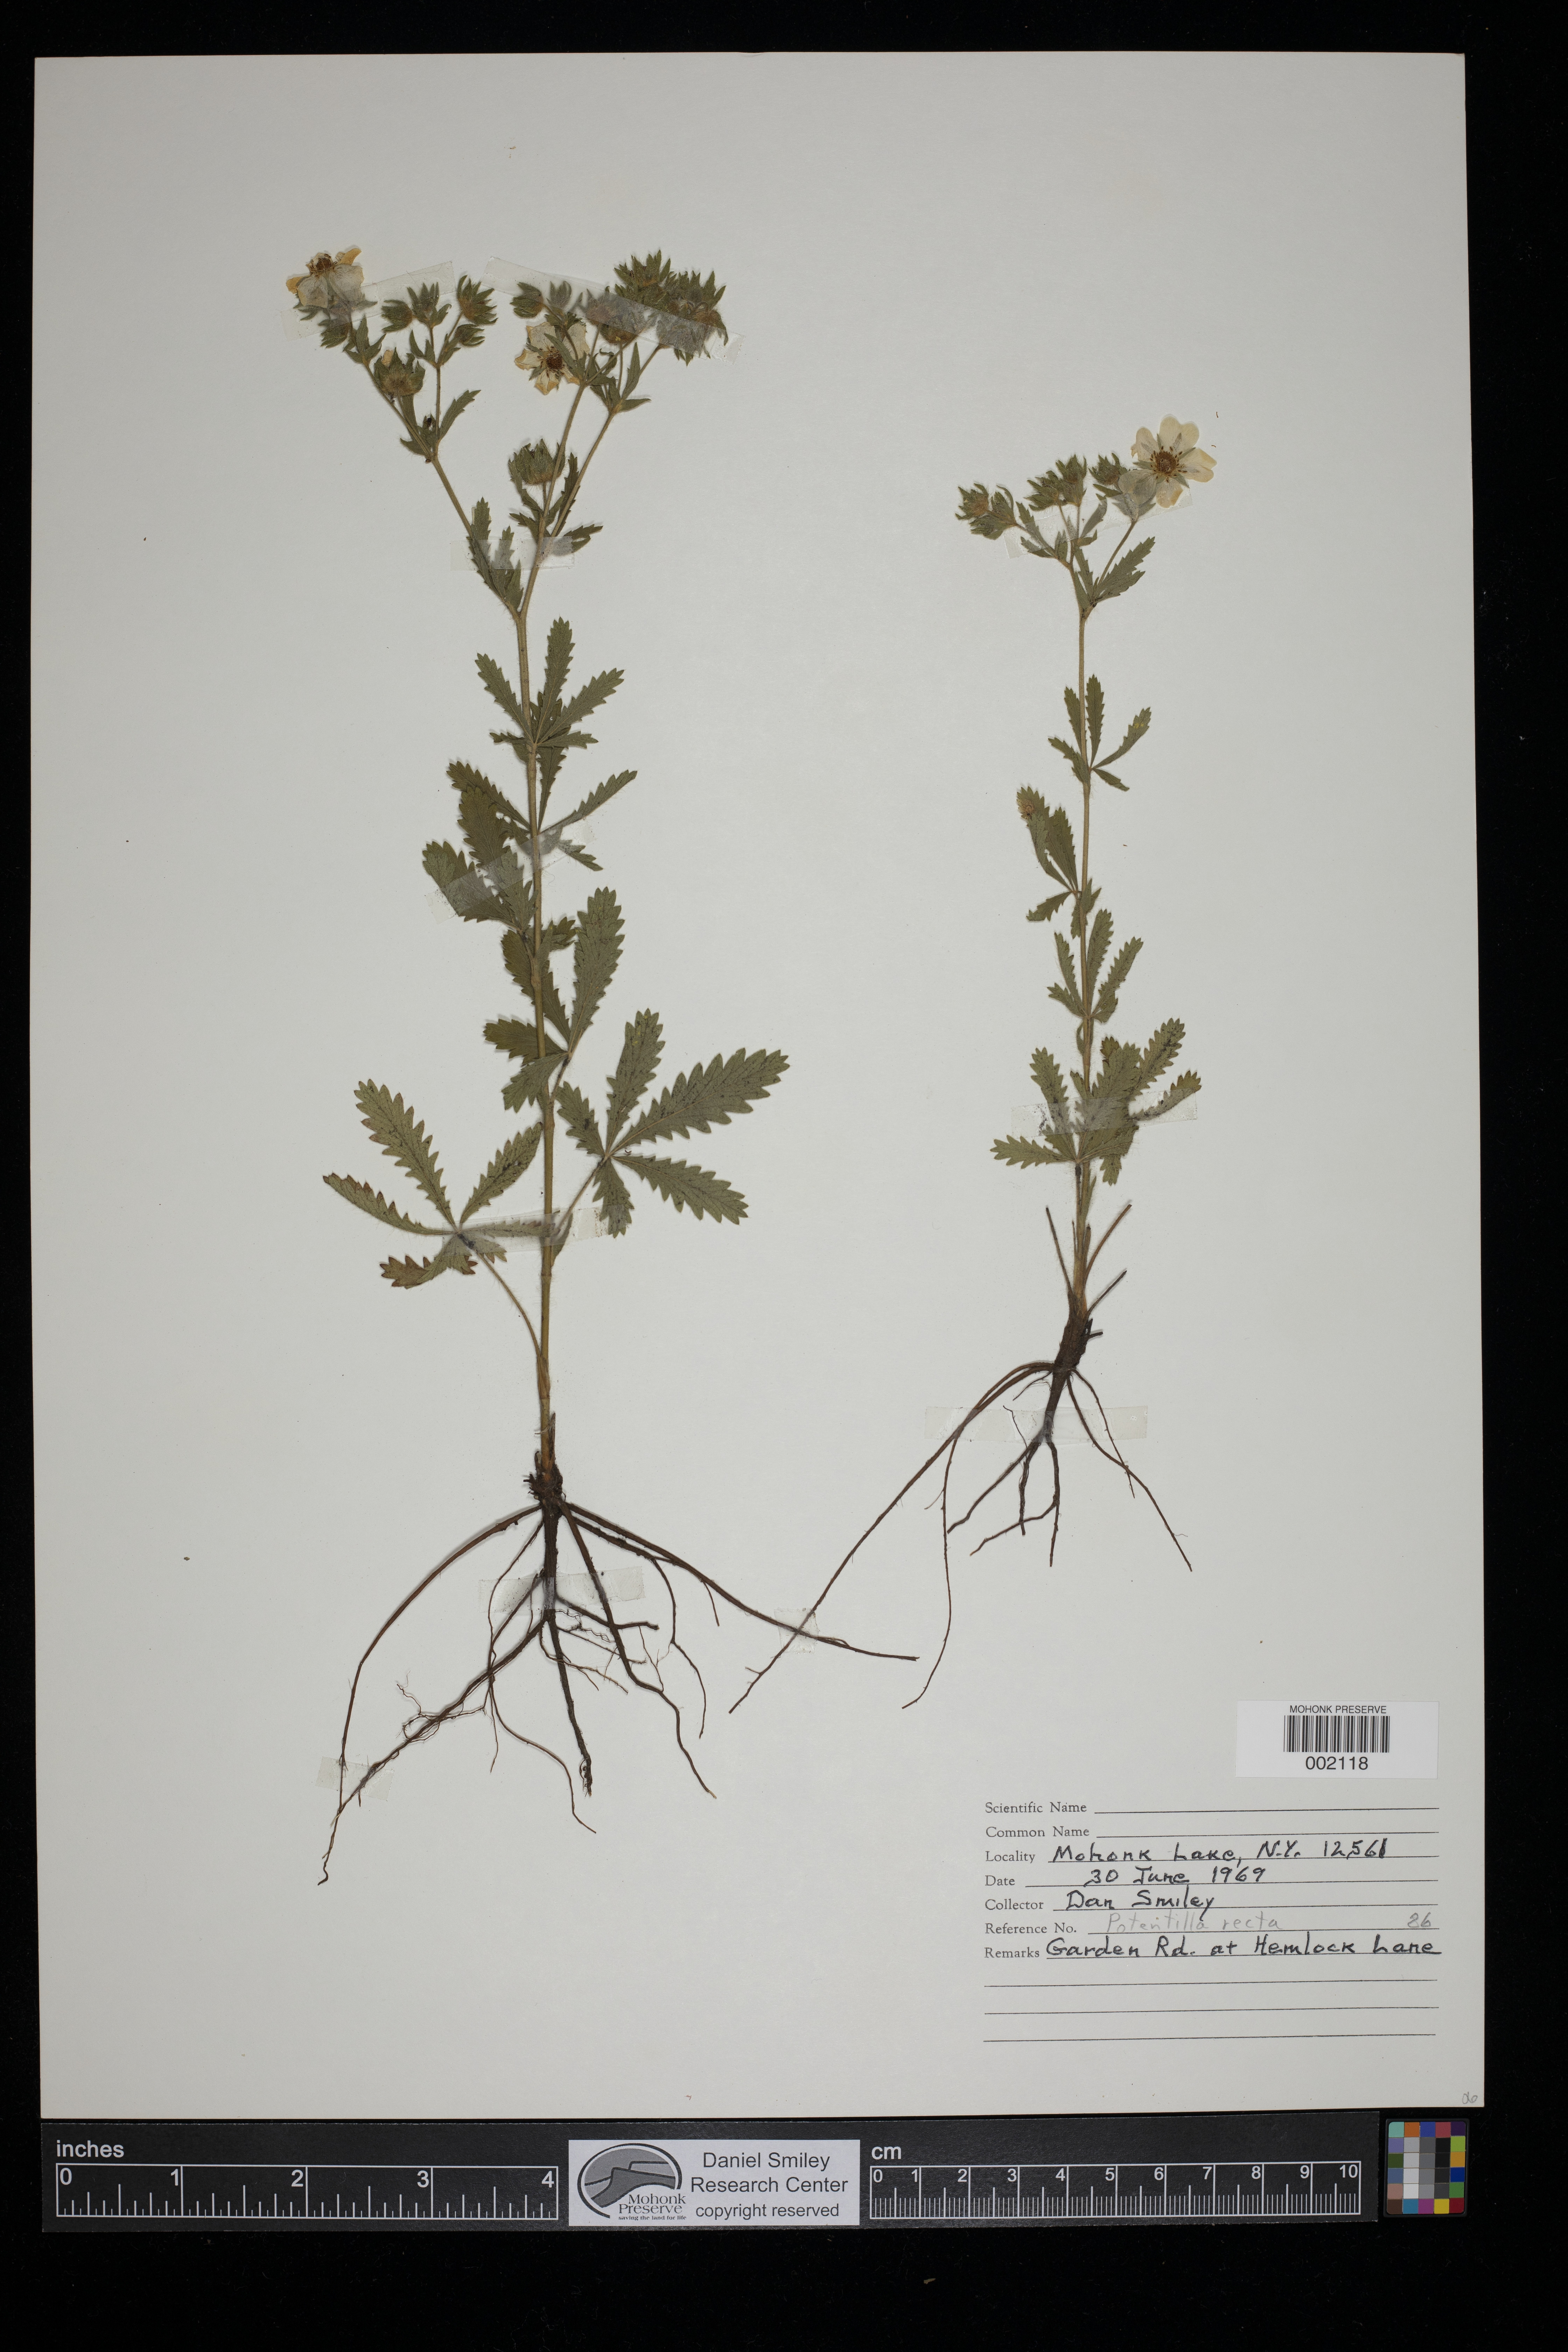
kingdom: Plantae
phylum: Tracheophyta
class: Magnoliopsida
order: Rosales
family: Rosaceae
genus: Potentilla
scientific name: Potentilla recta
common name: Sulphur cinquefoil
